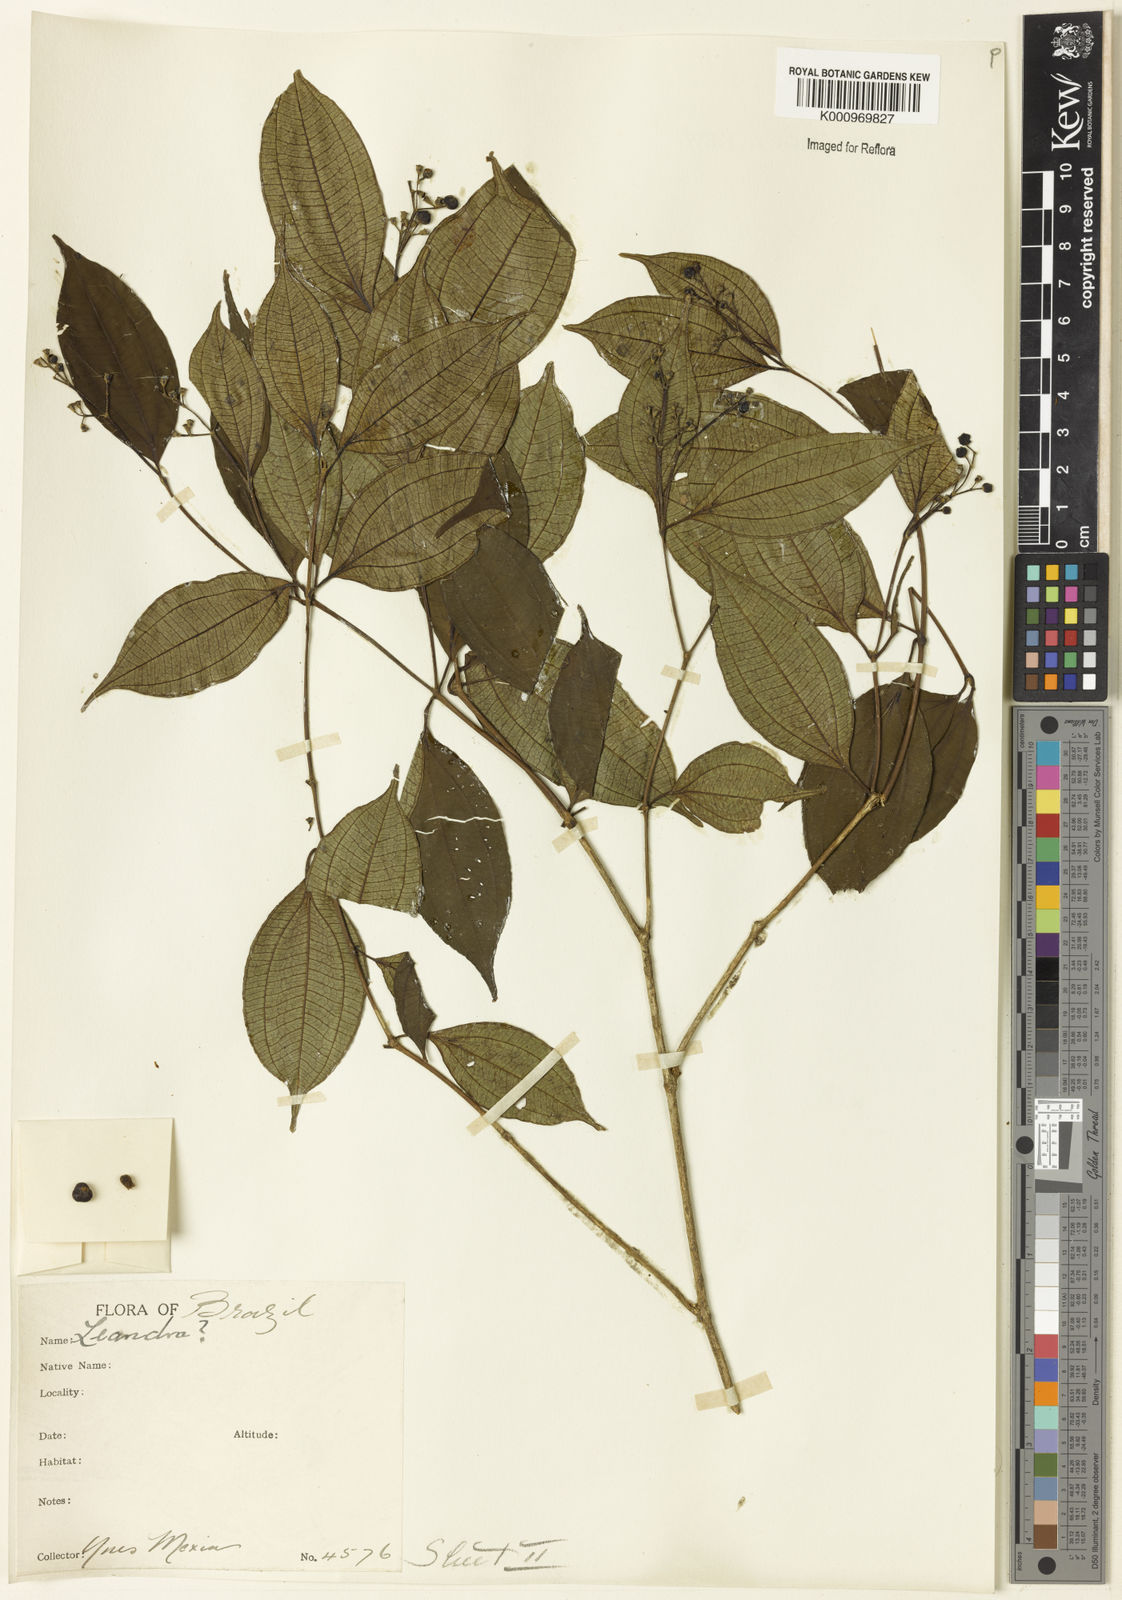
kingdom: Plantae
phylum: Tracheophyta
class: Magnoliopsida
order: Myrtales
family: Melastomataceae
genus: Miconia
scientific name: Miconia
